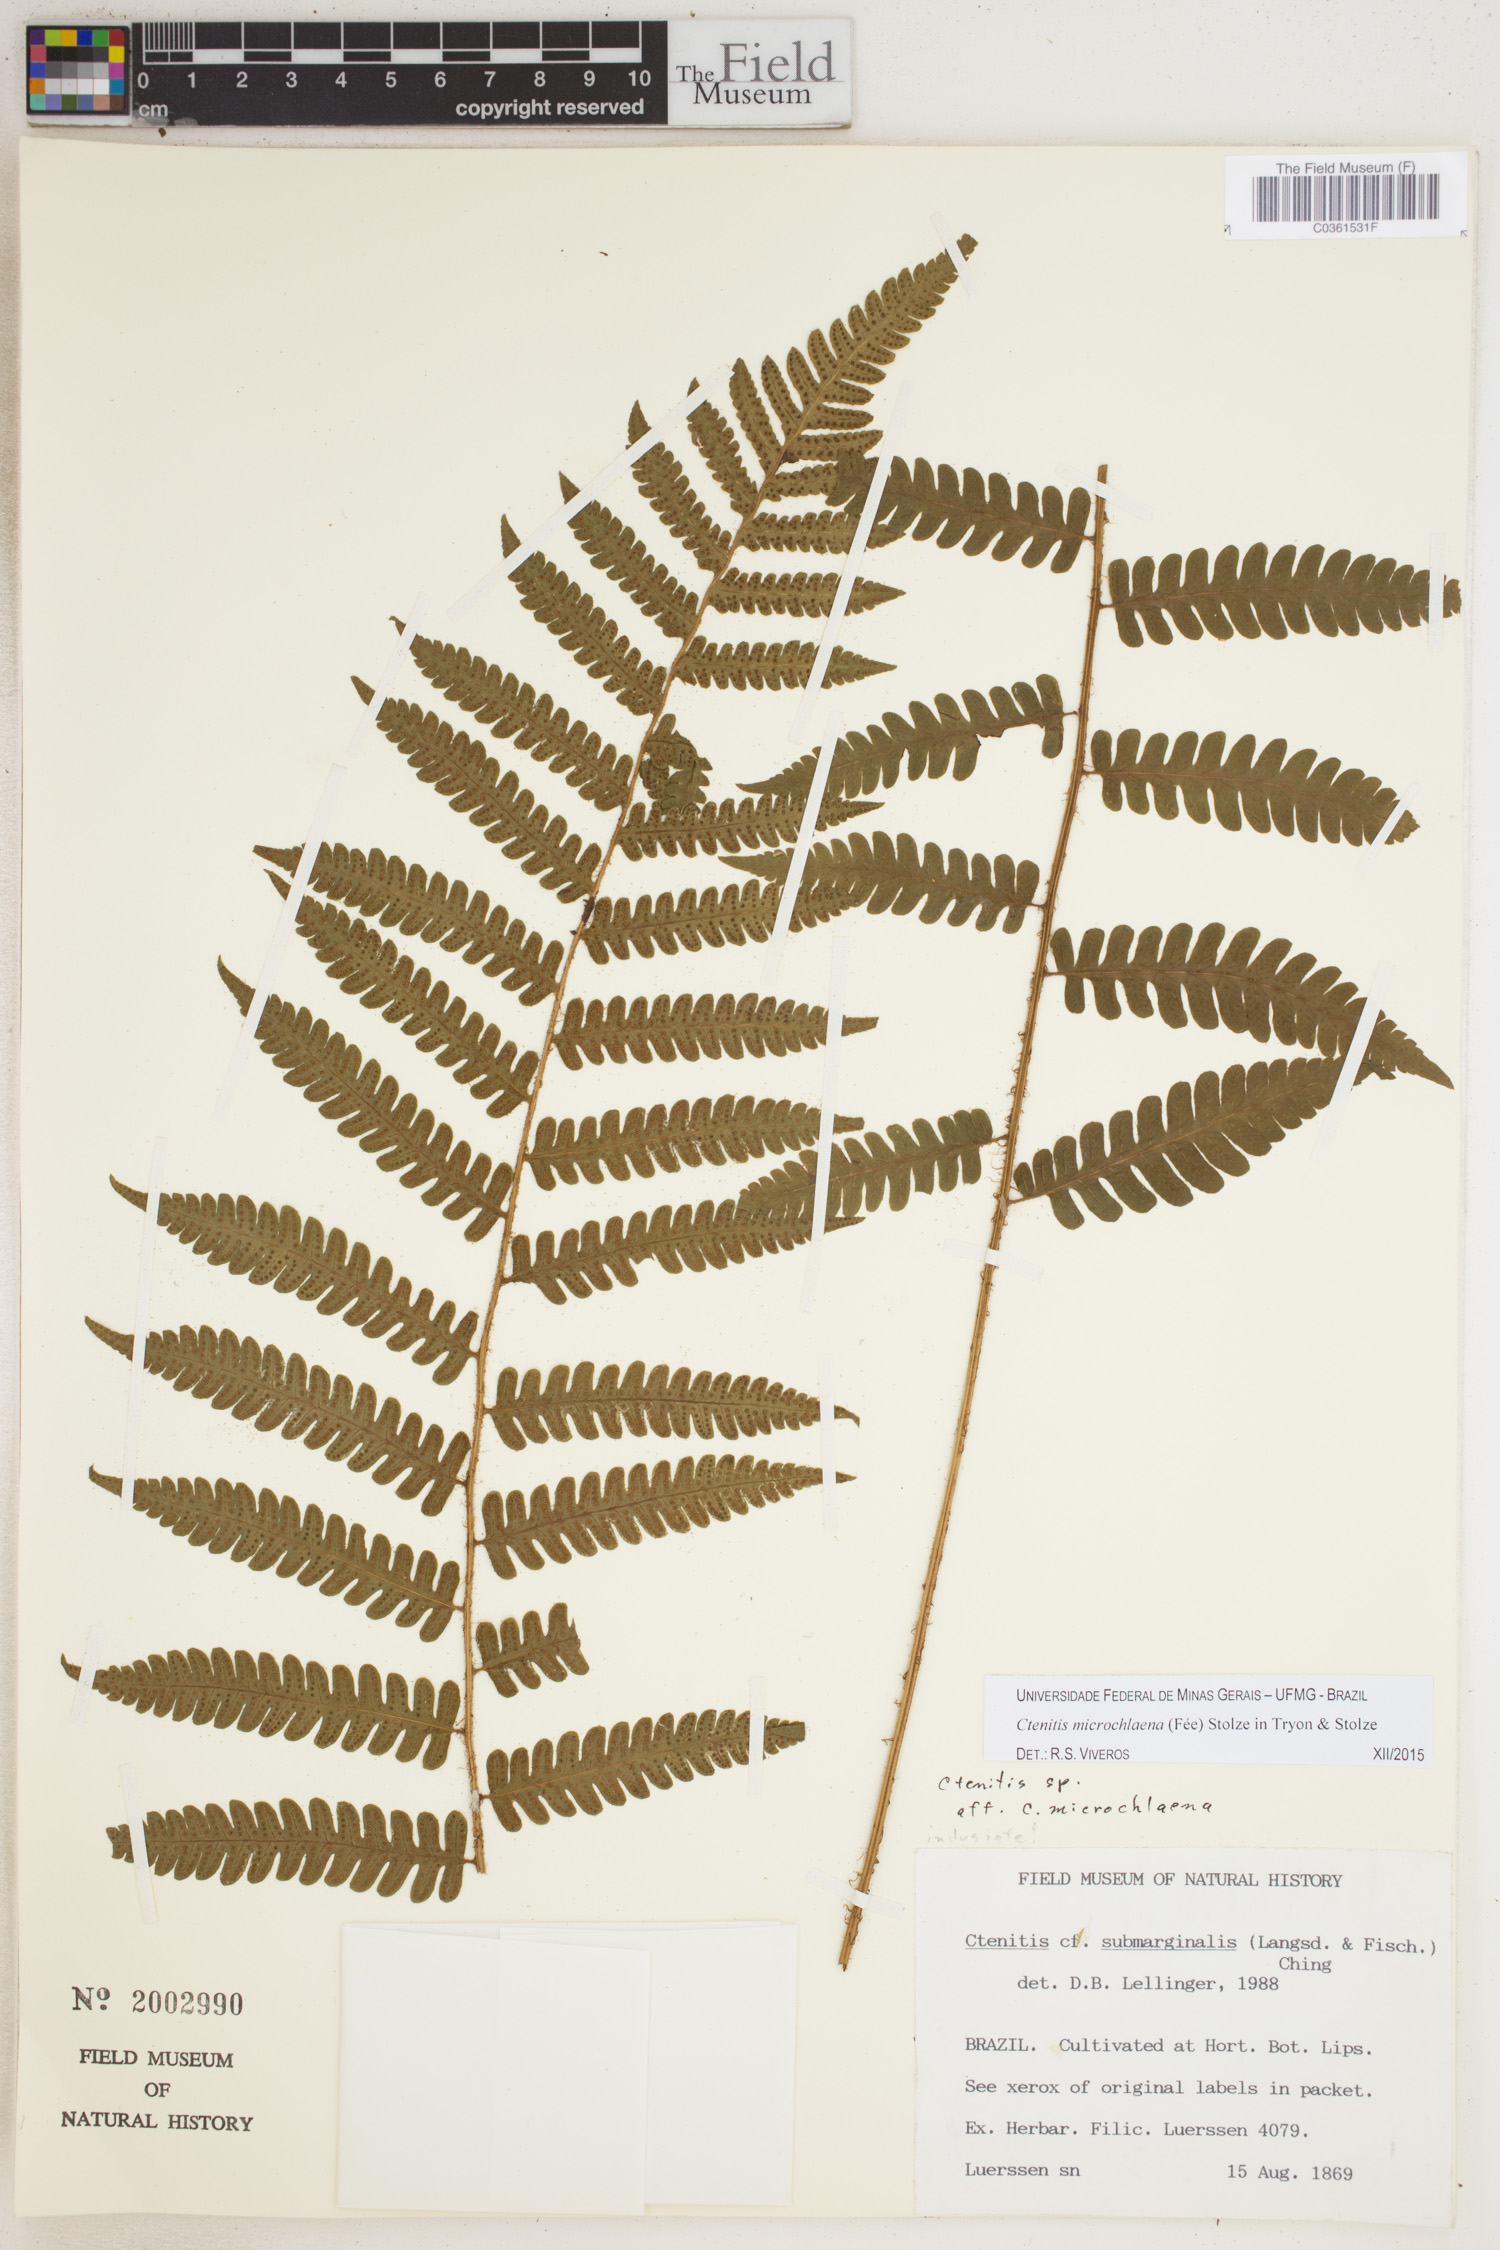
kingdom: Plantae
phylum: Tracheophyta
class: Polypodiopsida
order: Polypodiales
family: Dryopteridaceae
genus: Ctenitis
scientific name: Ctenitis microchlaena
